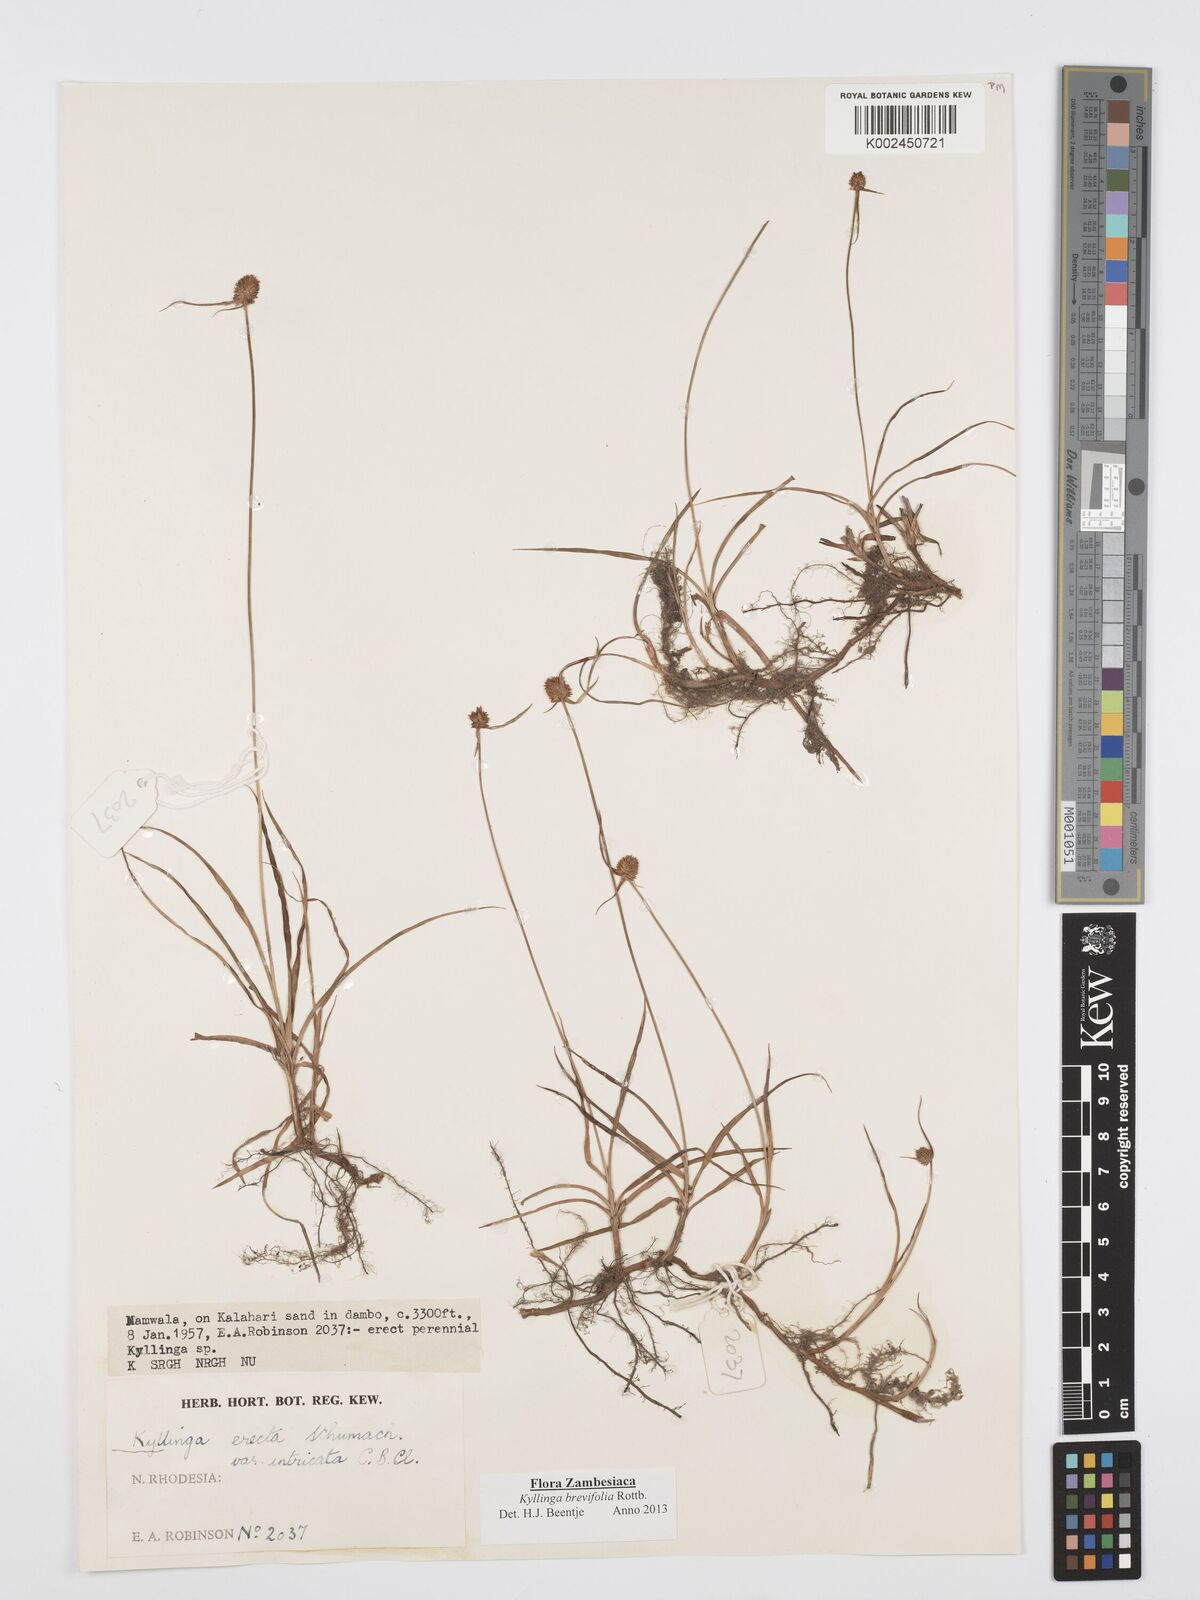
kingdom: Plantae
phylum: Tracheophyta
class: Liliopsida
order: Poales
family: Cyperaceae
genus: Cyperus
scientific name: Cyperus brevifolius
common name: Globe kyllinga
